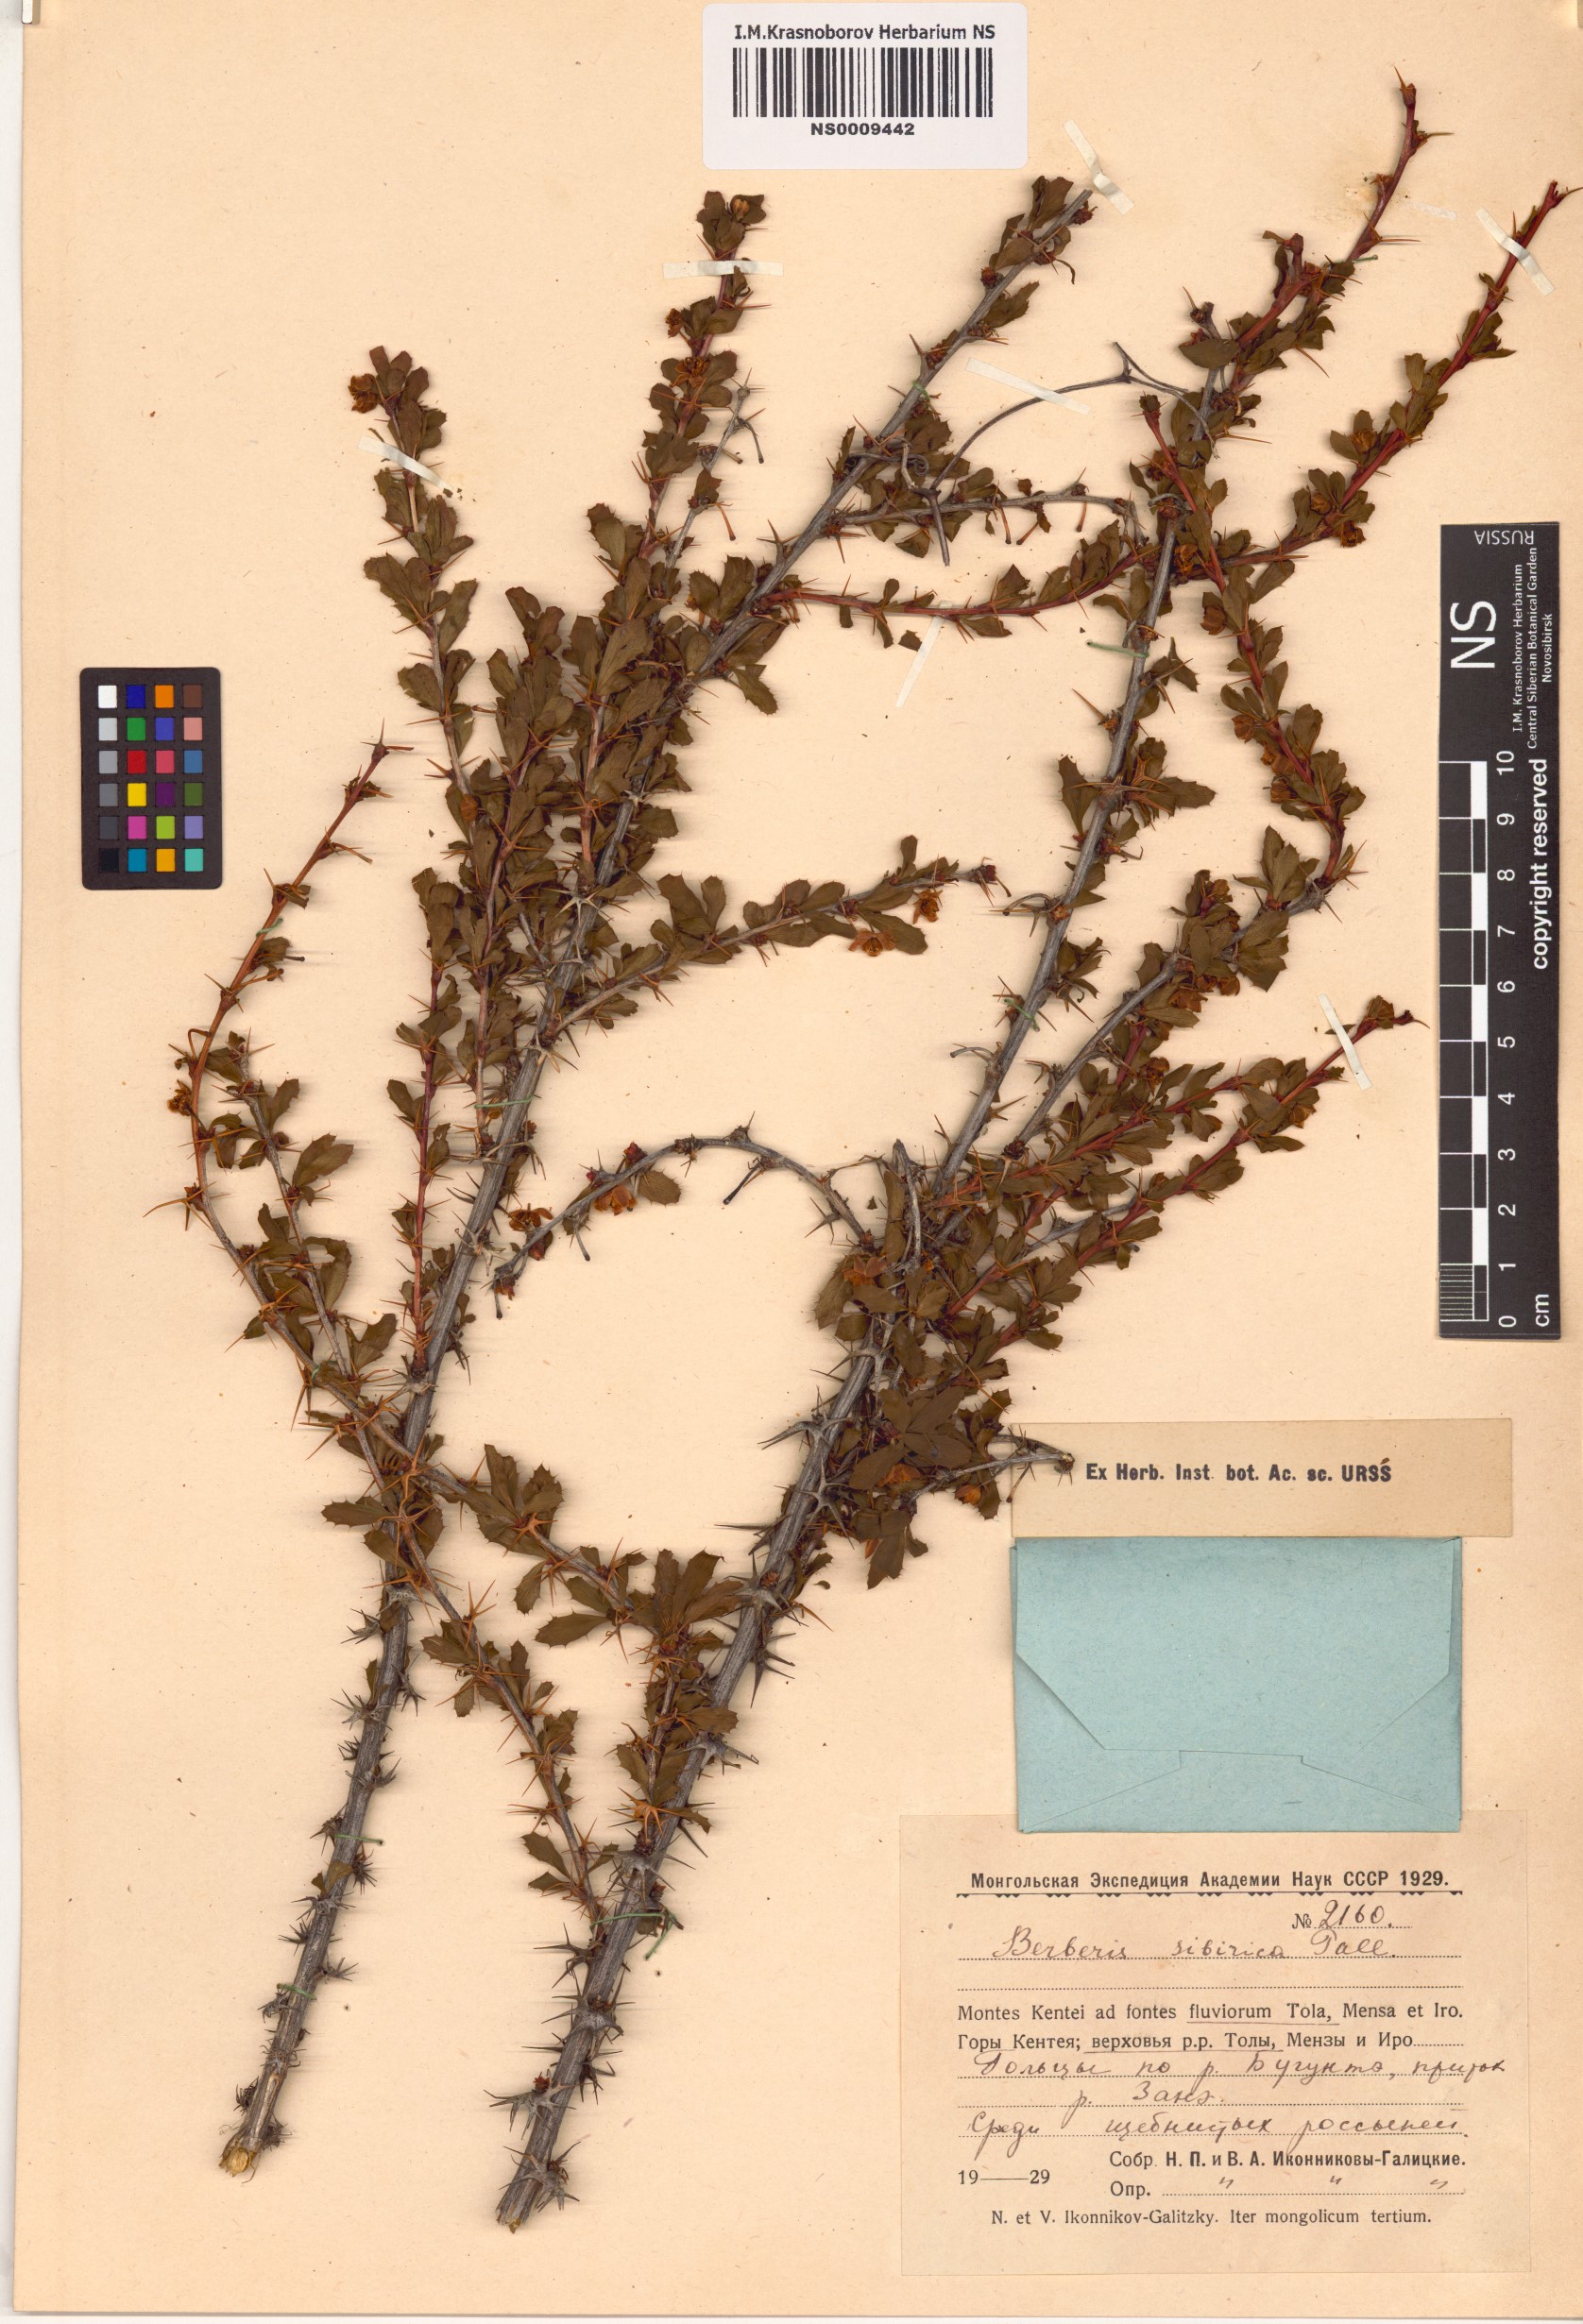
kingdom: Plantae
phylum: Tracheophyta
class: Magnoliopsida
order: Ranunculales
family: Berberidaceae
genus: Berberis
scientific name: Berberis sibirica
